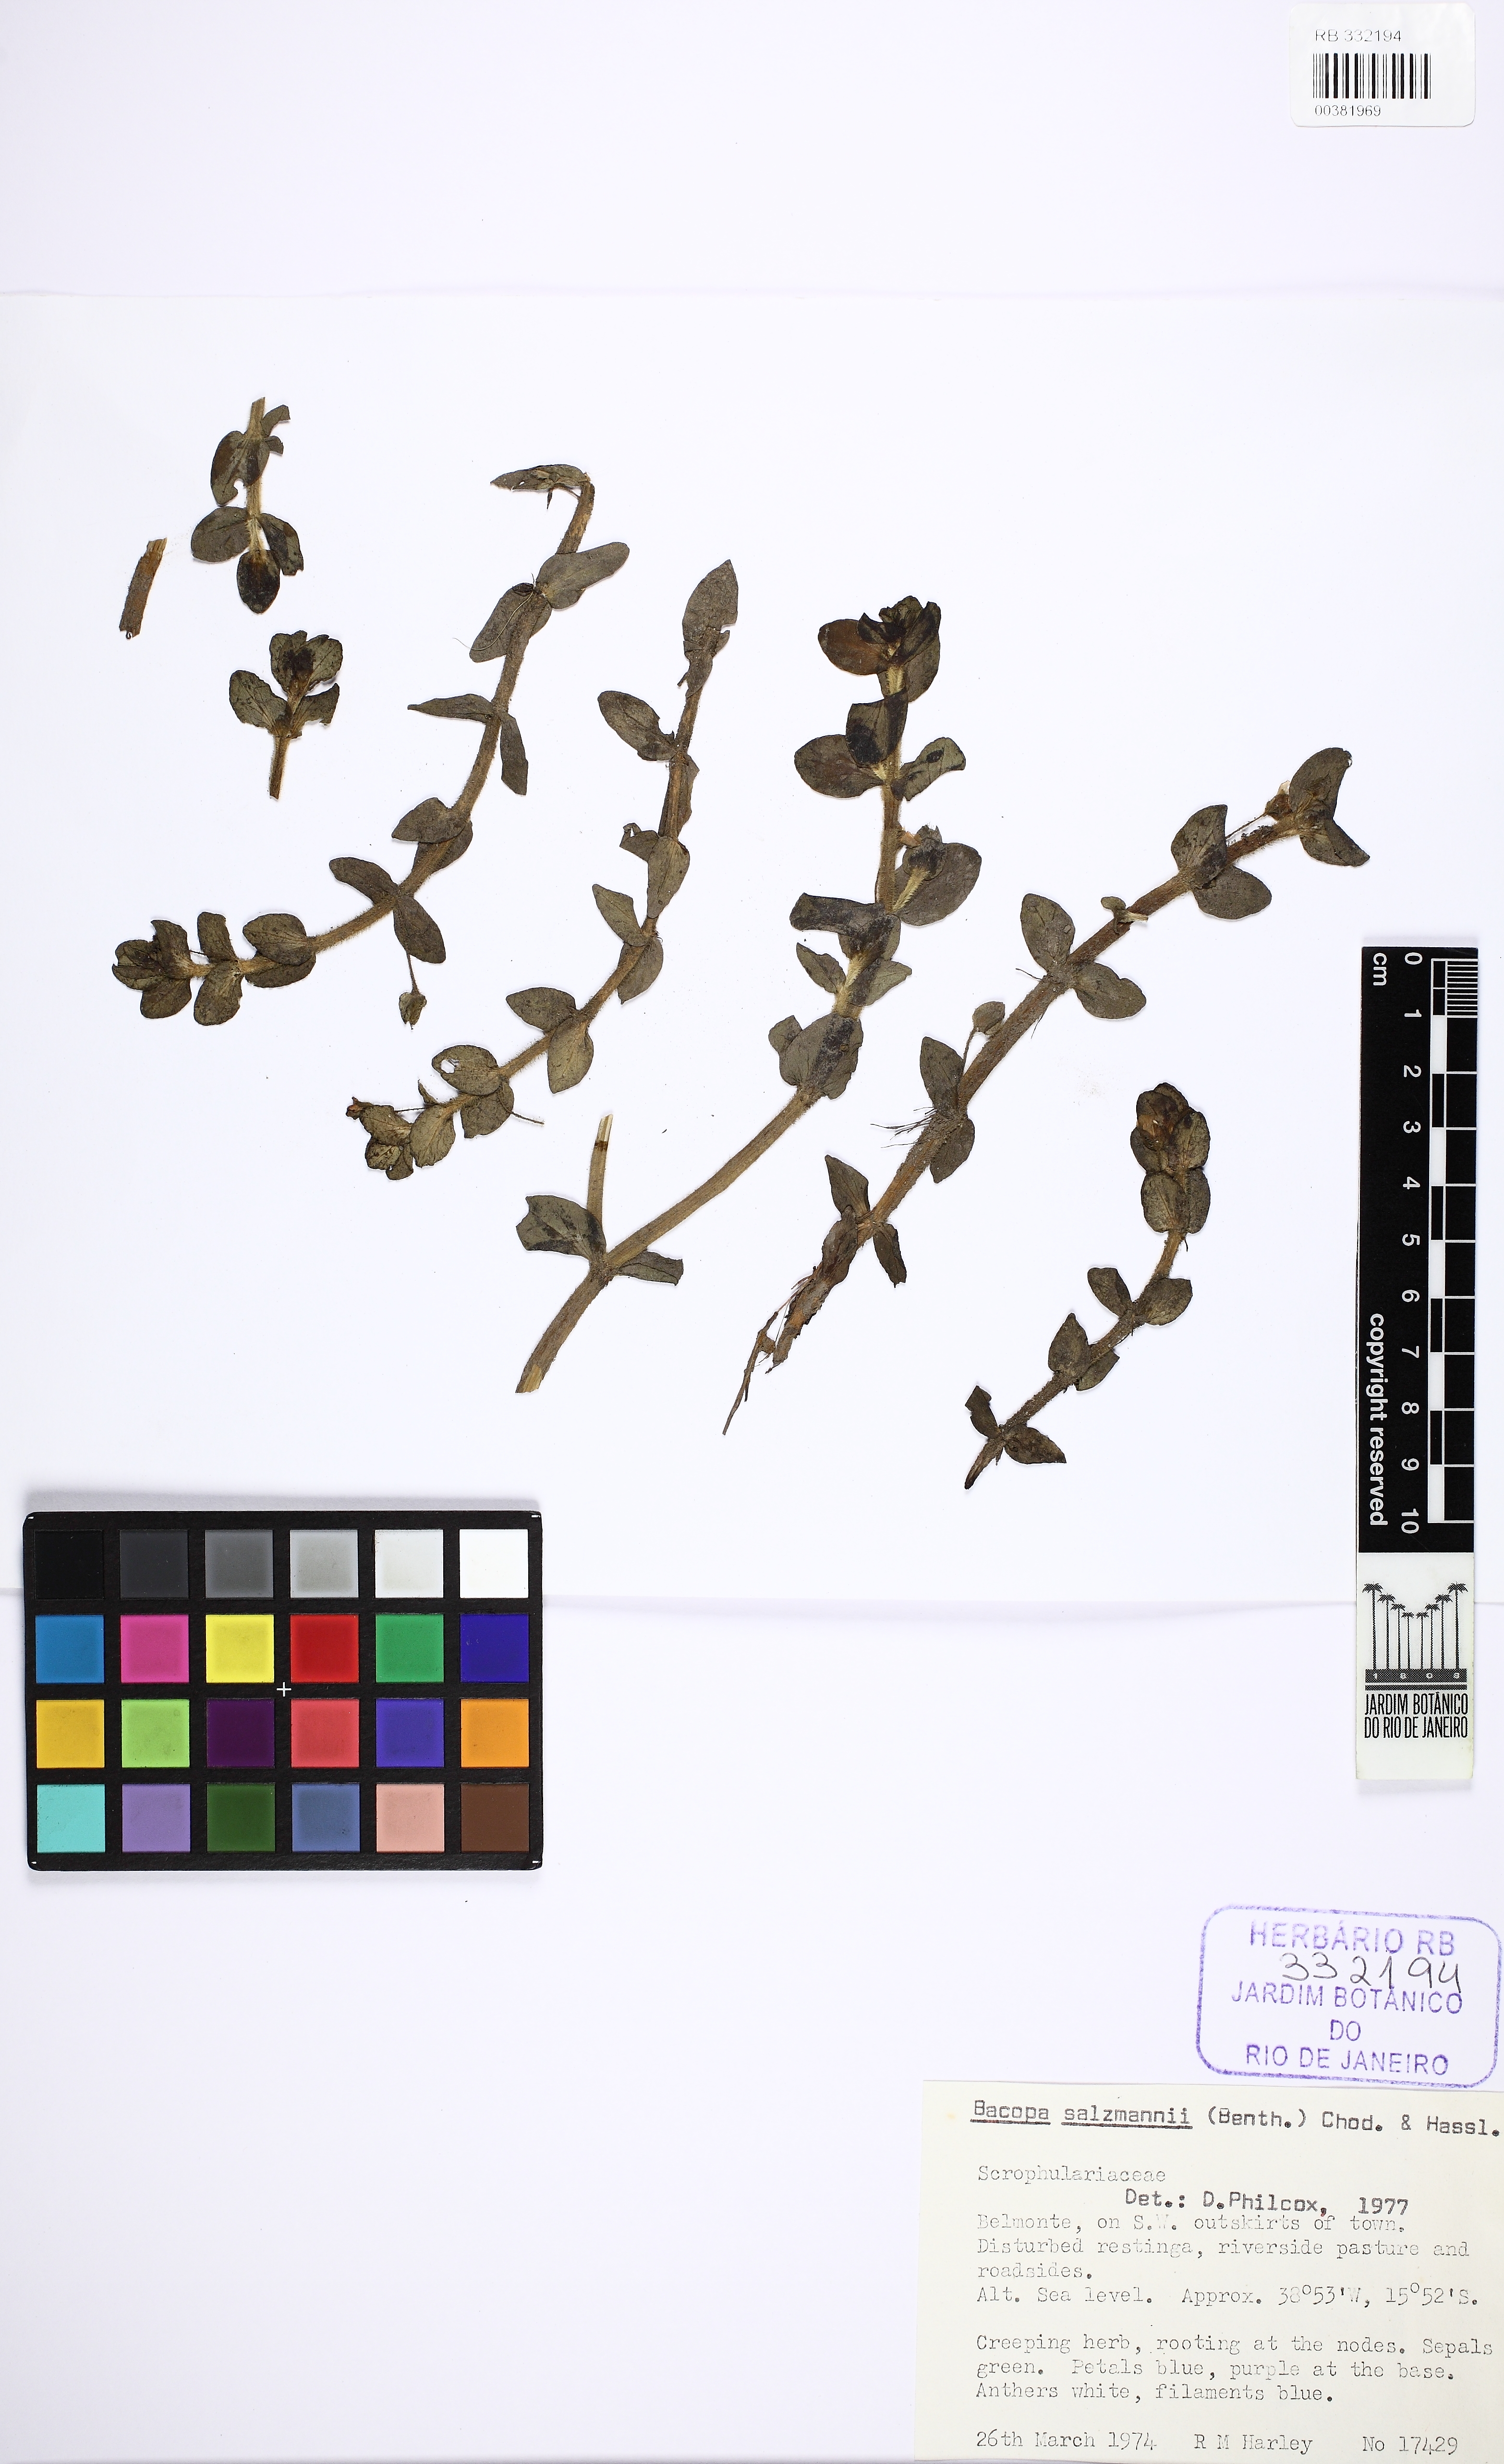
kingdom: Plantae
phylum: Tracheophyta
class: Magnoliopsida
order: Lamiales
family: Plantaginaceae
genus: Bacopa
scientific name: Bacopa salzmannii
